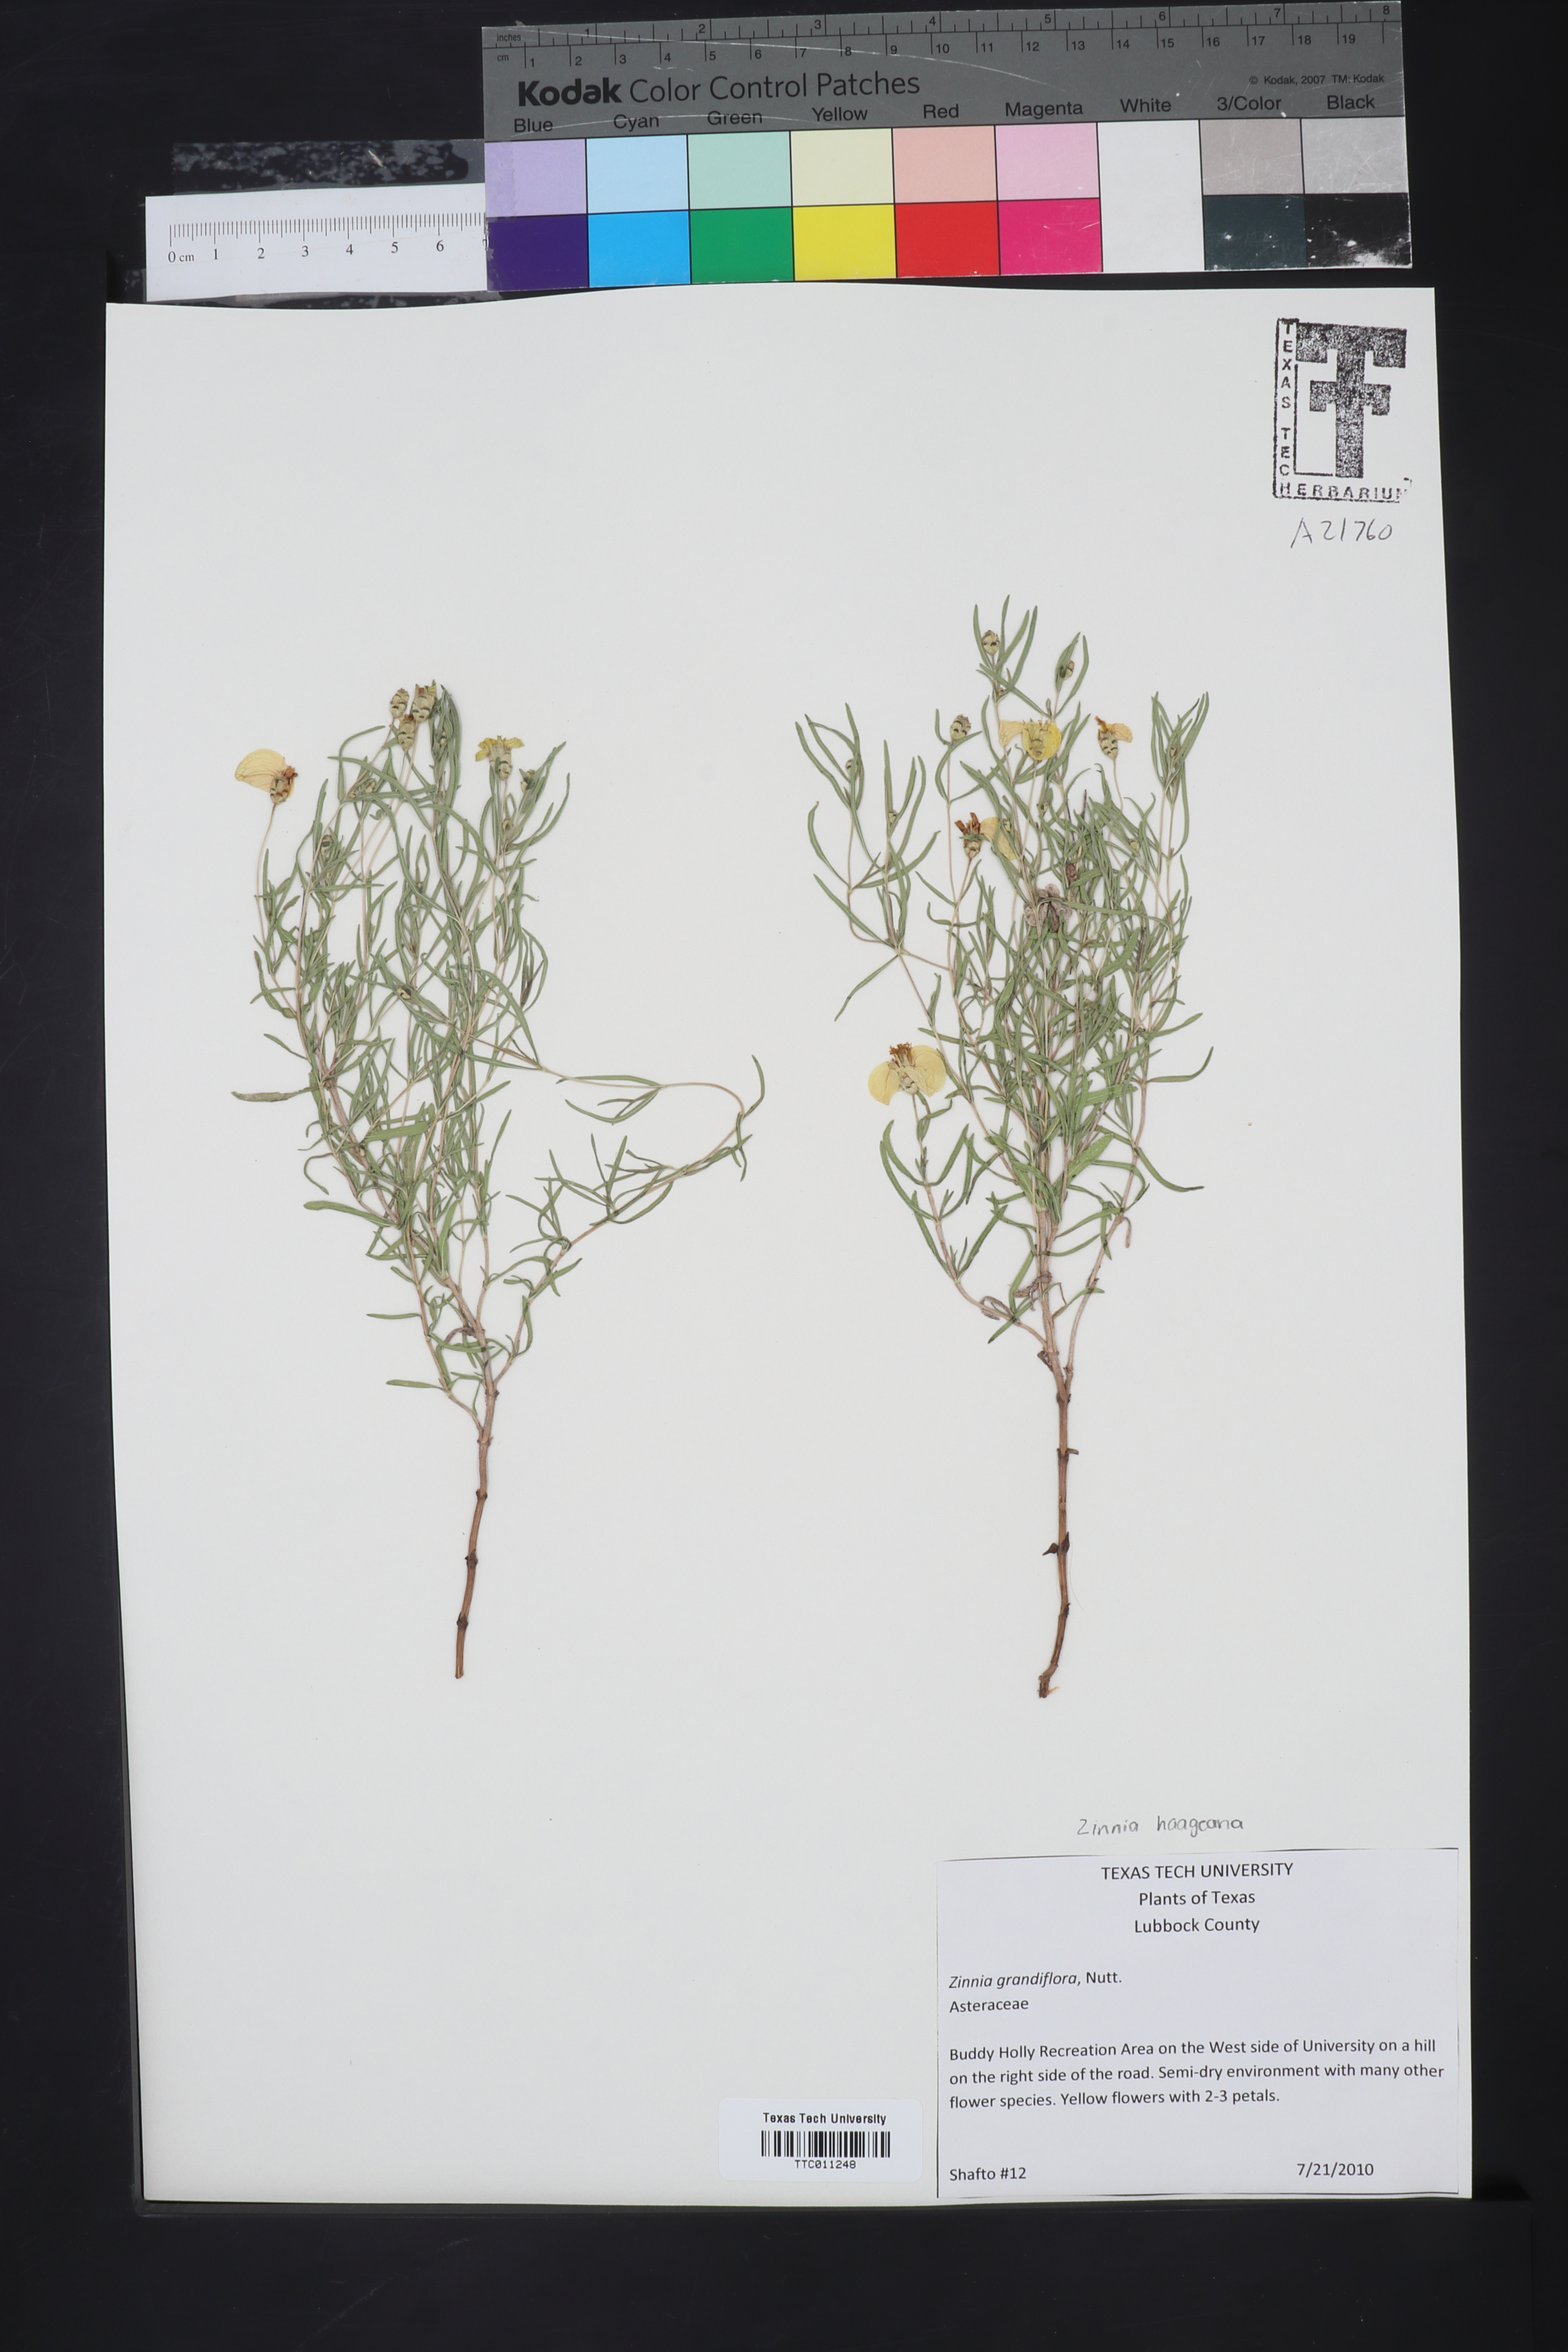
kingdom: Plantae
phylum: Tracheophyta
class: Magnoliopsida
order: Asterales
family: Asteraceae
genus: Zinnia
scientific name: Zinnia grandiflora
